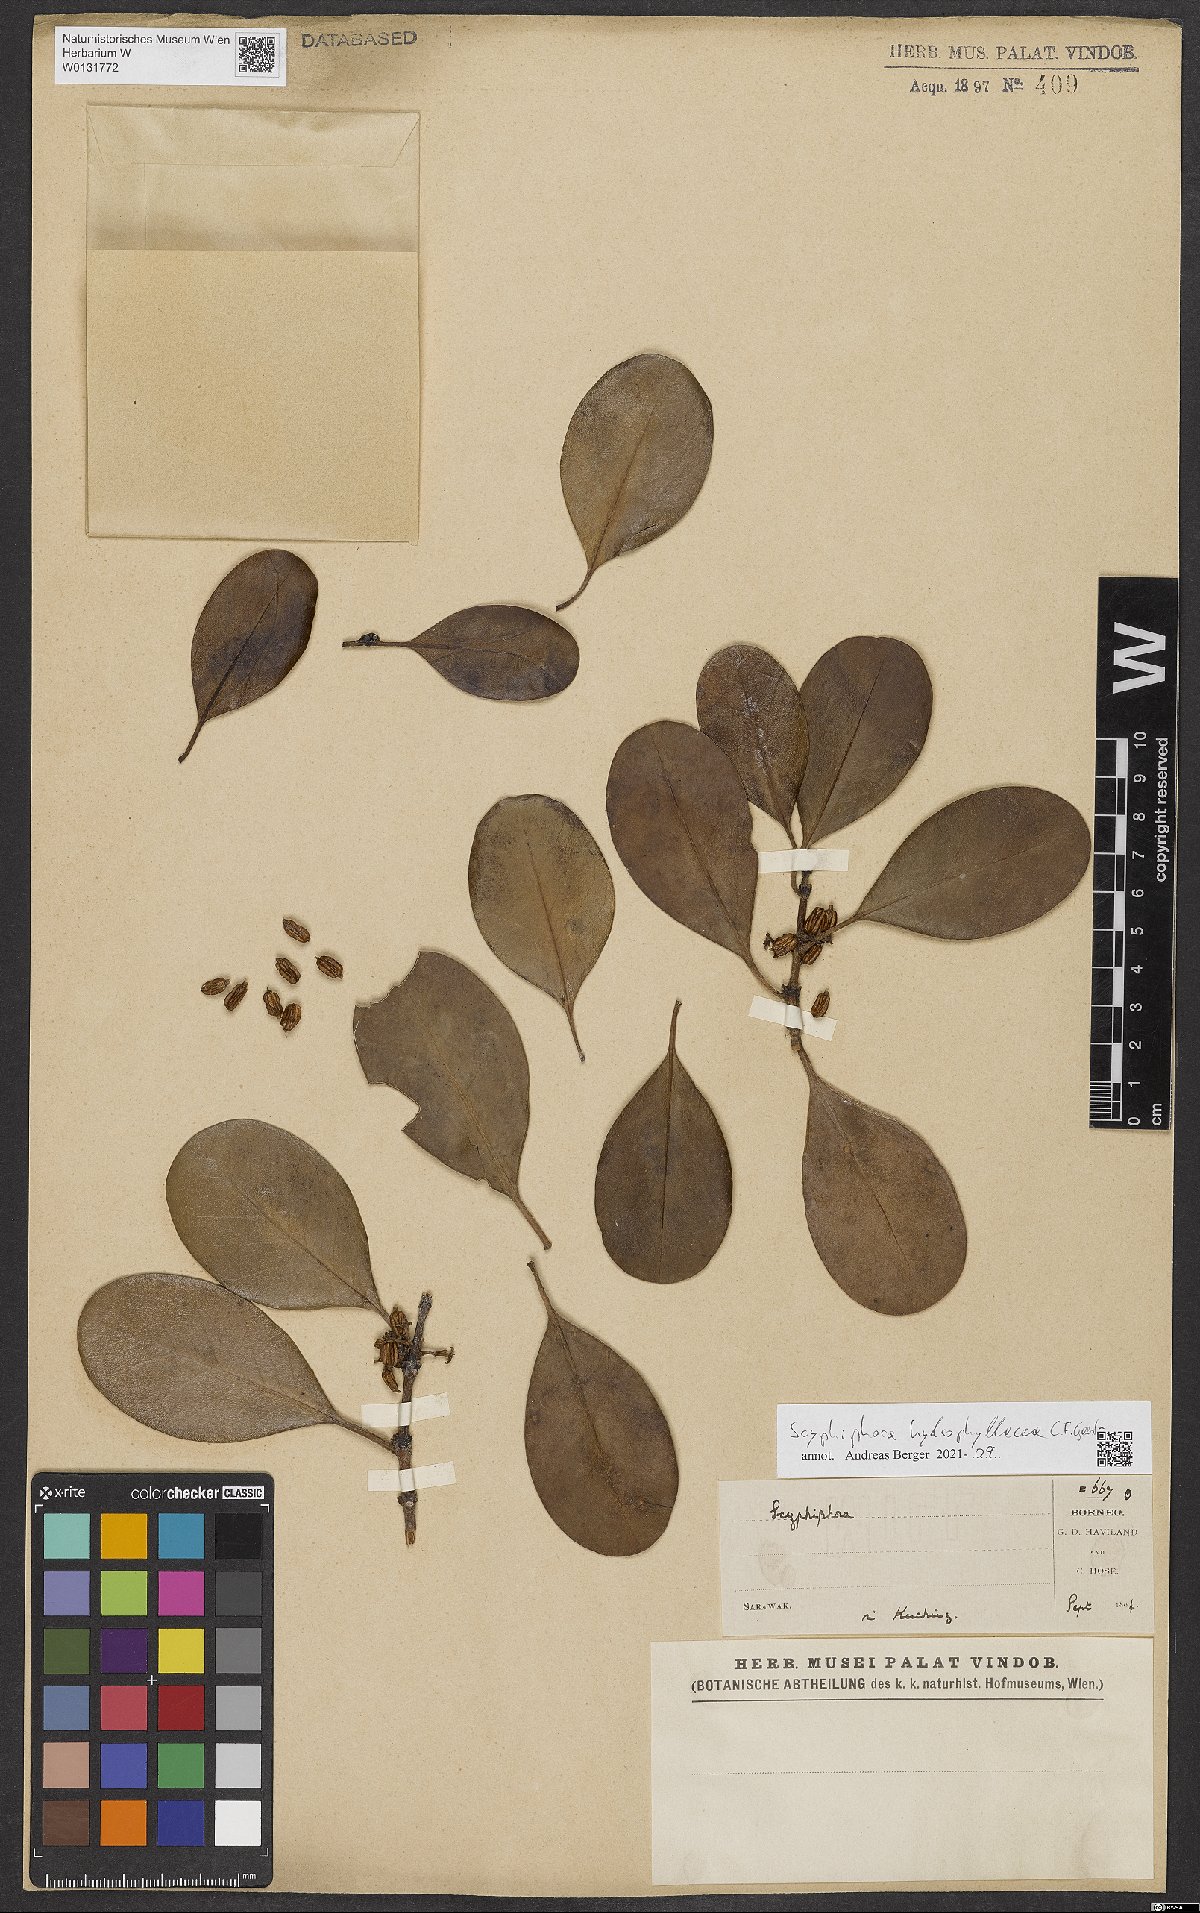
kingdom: Plantae
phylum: Tracheophyta
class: Magnoliopsida
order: Gentianales
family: Rubiaceae
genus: Scyphiphora
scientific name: Scyphiphora hydrophylacea
